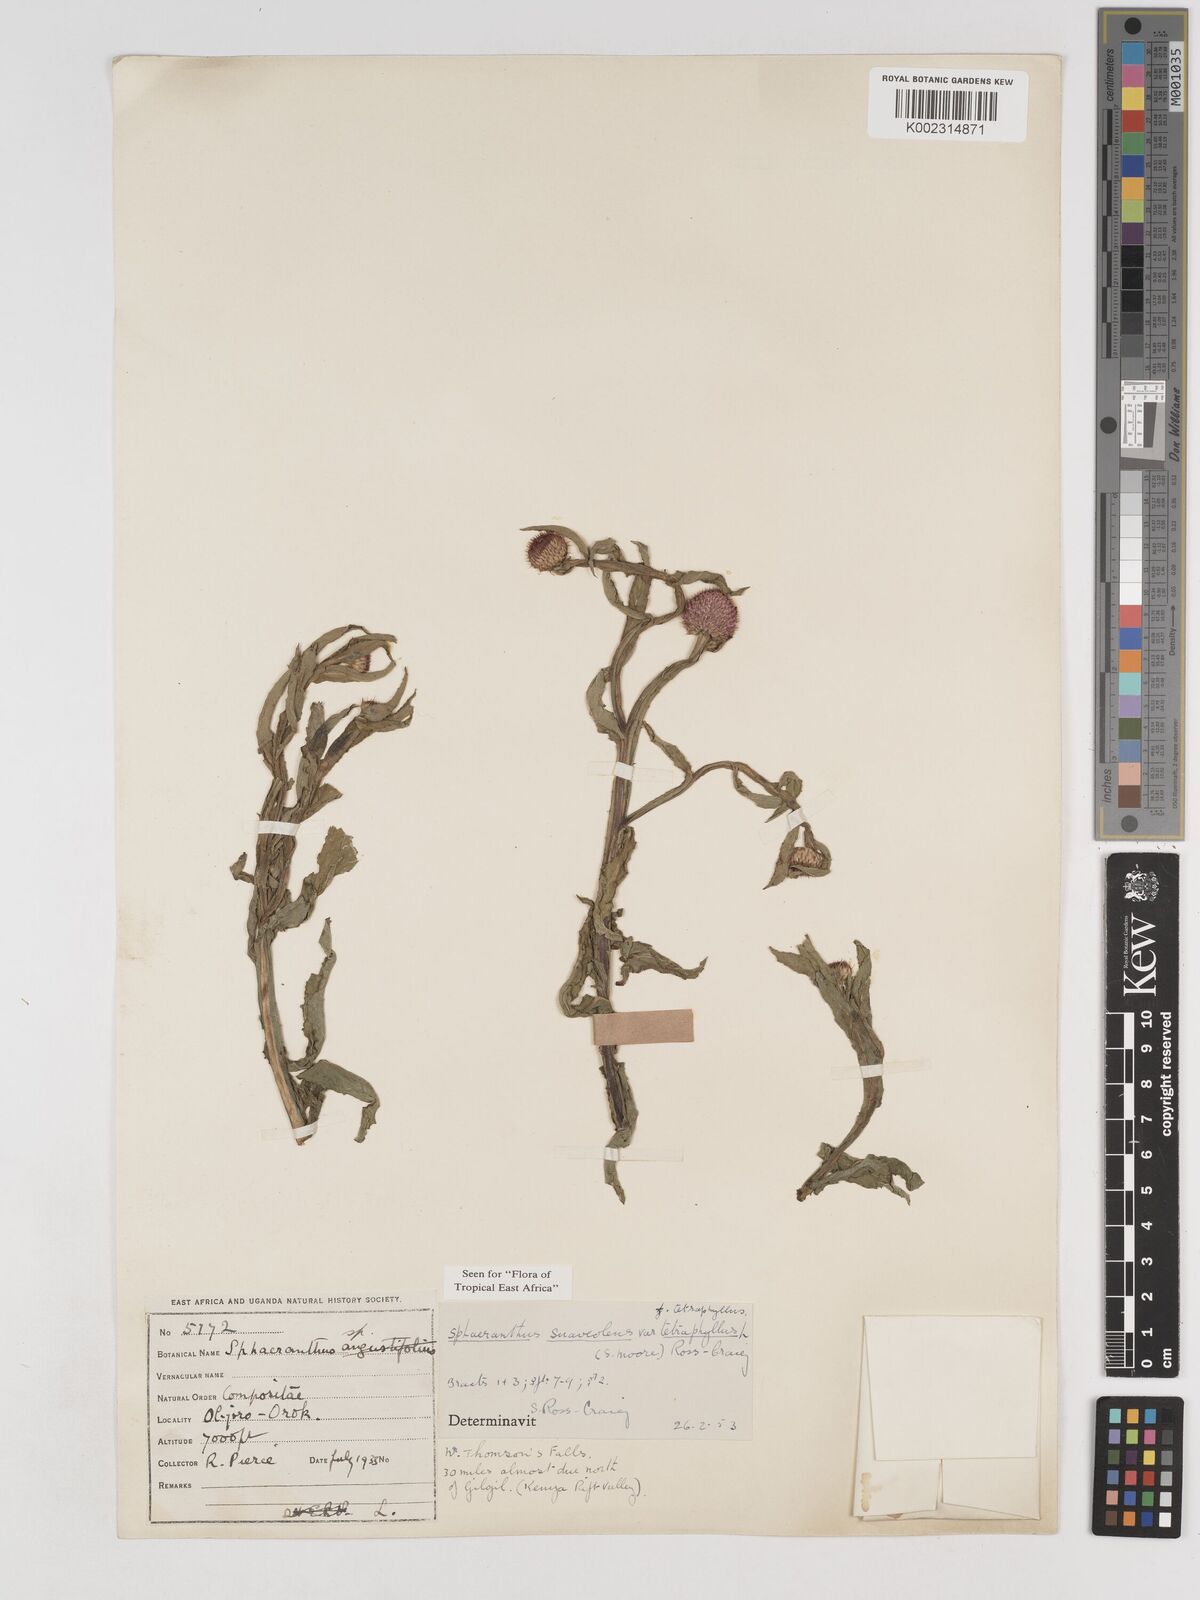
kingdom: Plantae
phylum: Tracheophyta
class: Magnoliopsida
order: Asterales
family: Asteraceae
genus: Sphaeranthus
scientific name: Sphaeranthus suaveolens
